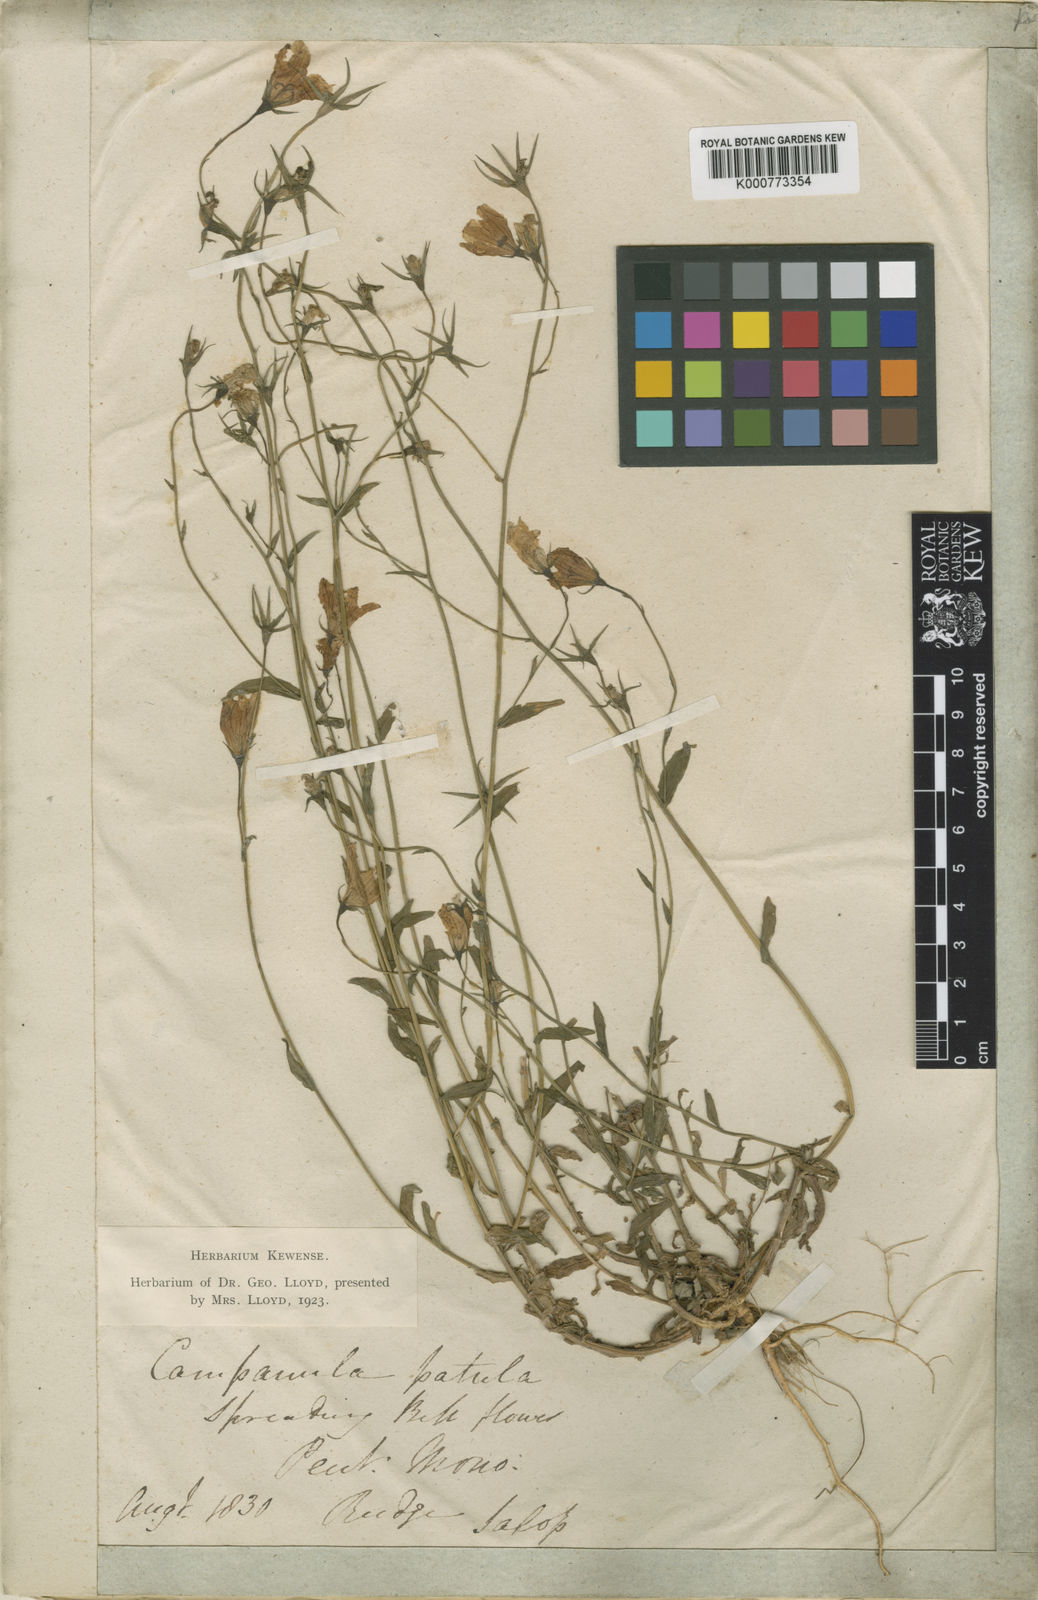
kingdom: Plantae
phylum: Tracheophyta
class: Magnoliopsida
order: Asterales
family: Campanulaceae
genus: Campanula
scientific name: Campanula patula
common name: Spreading bellflower
